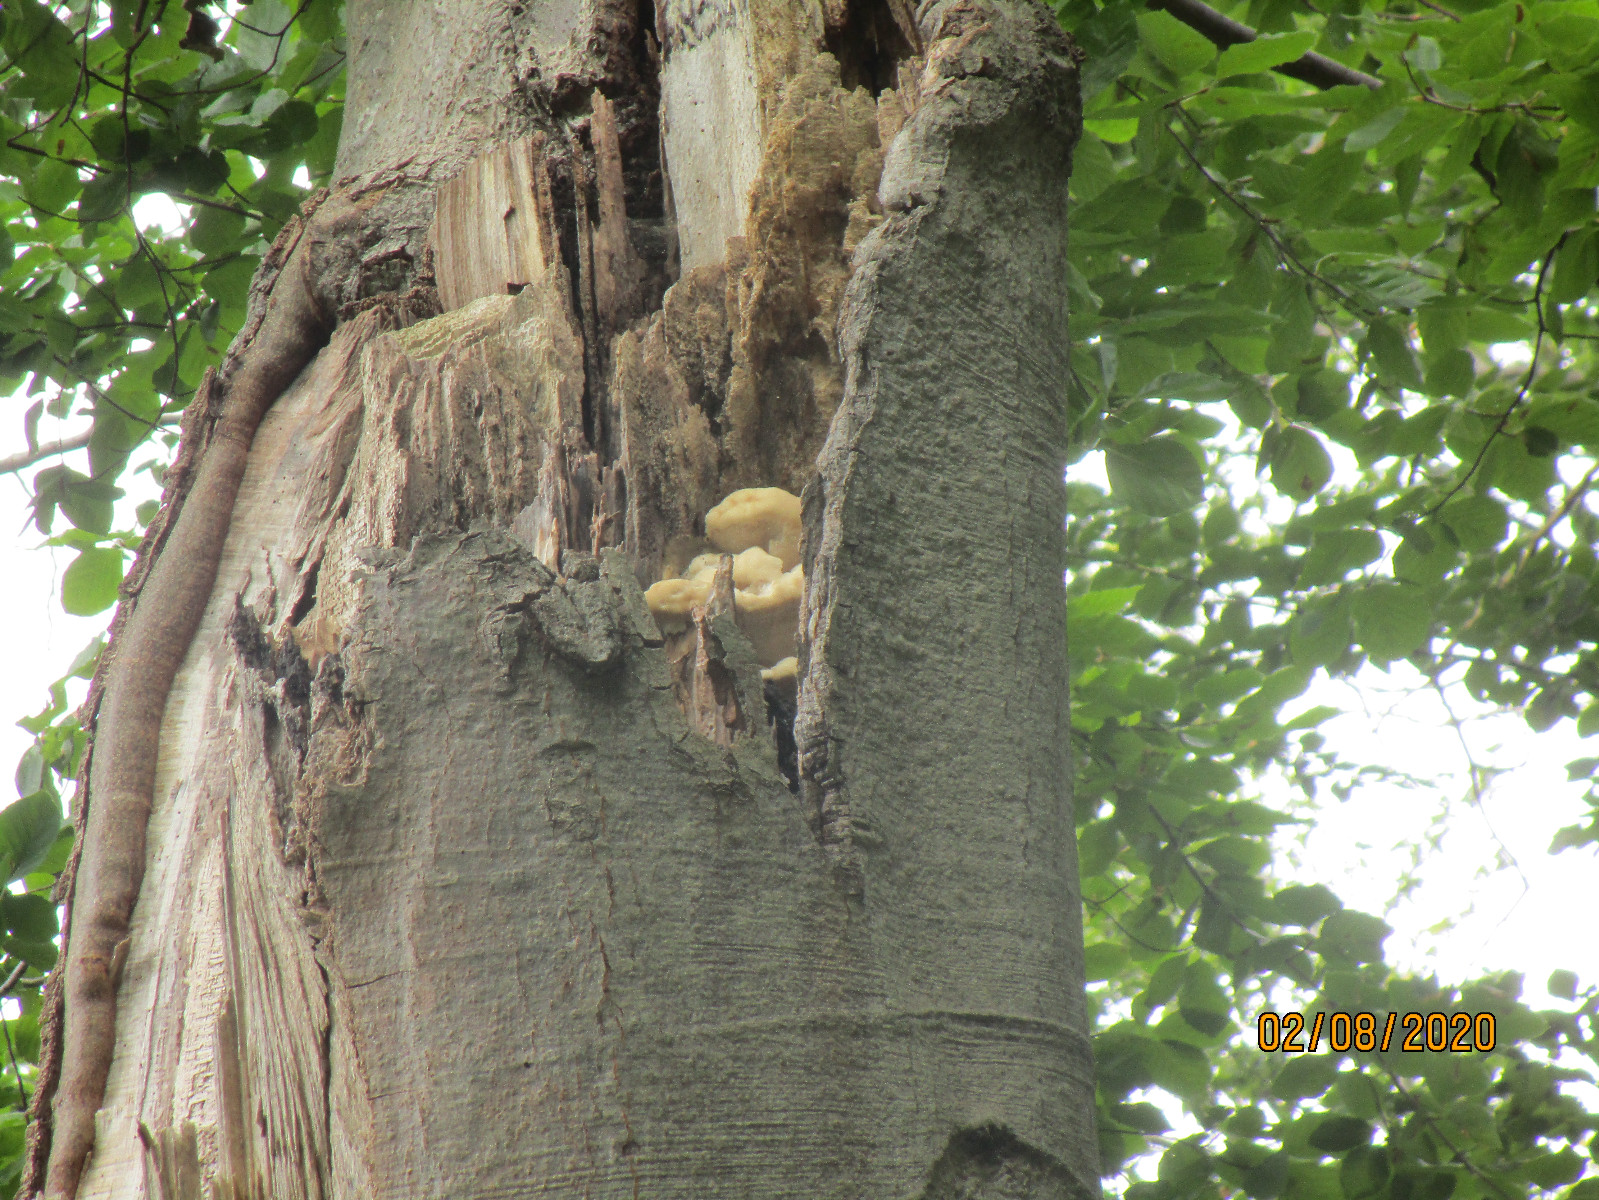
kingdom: Fungi
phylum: Basidiomycota
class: Agaricomycetes
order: Polyporales
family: Meruliaceae
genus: Pappia
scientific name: Pappia fissilis
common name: sej fedtporesvamp
